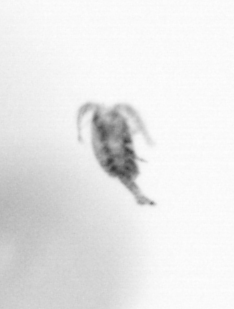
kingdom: Animalia
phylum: Arthropoda
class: Copepoda
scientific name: Copepoda
